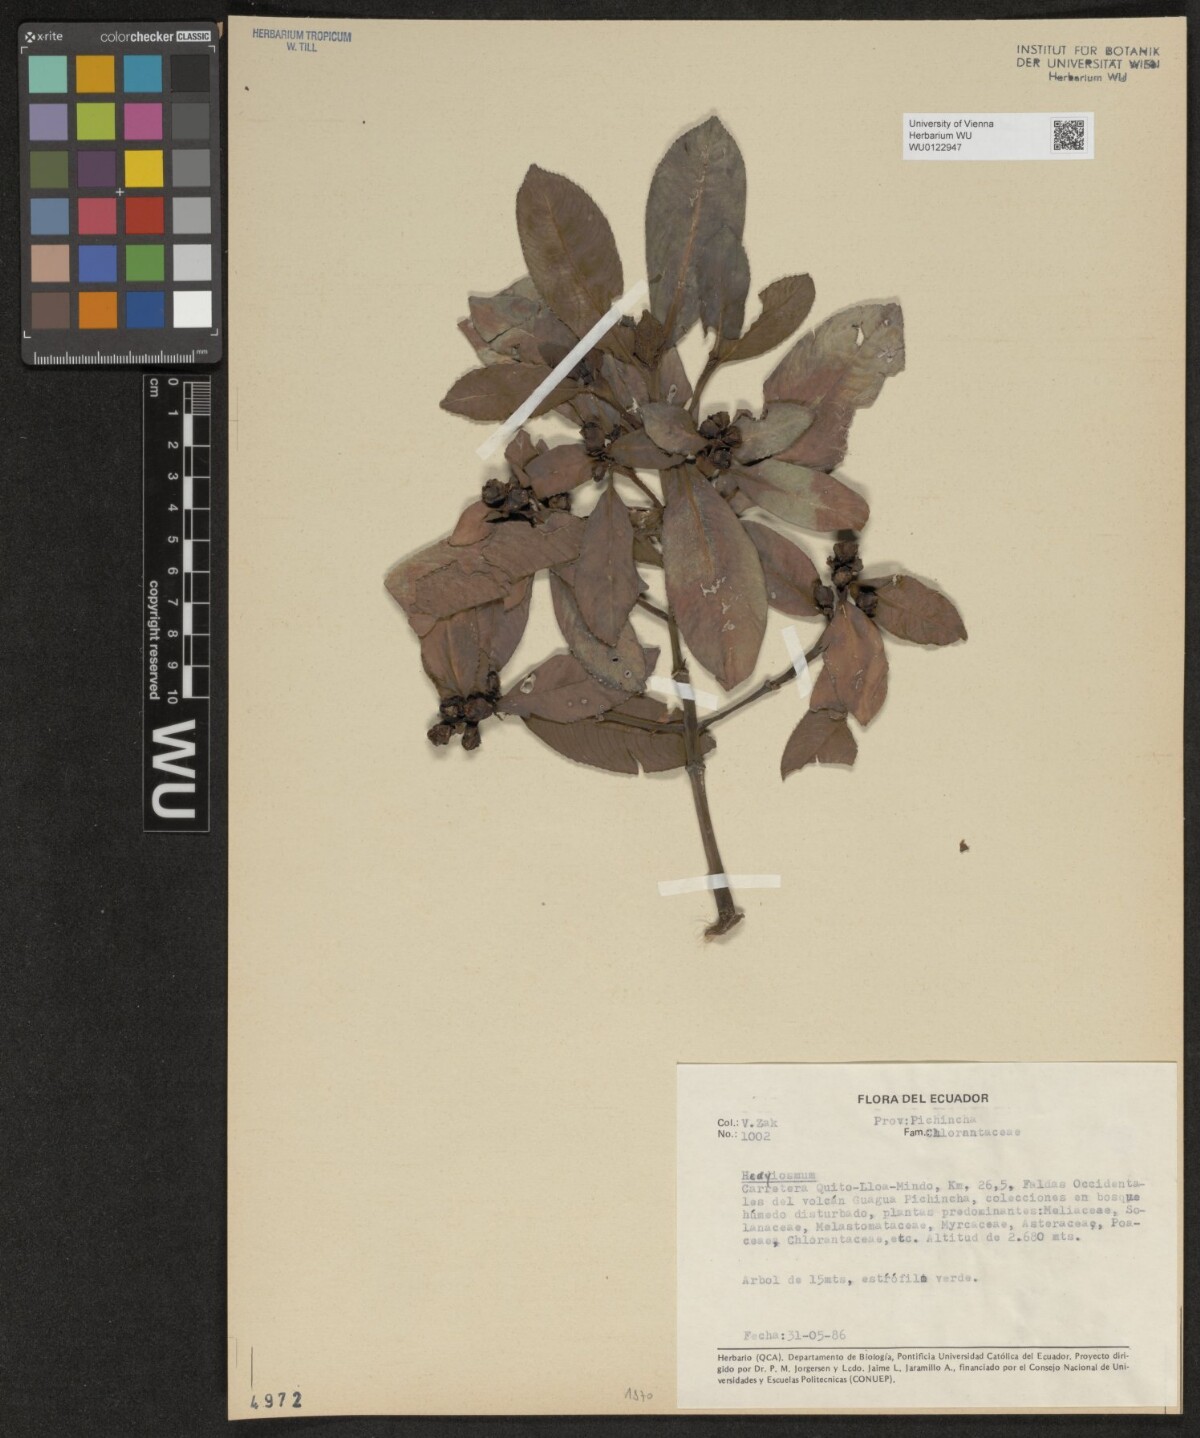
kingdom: Plantae
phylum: Tracheophyta
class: Magnoliopsida
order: Chloranthales
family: Chloranthaceae
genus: Hedyosmum
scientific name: Hedyosmum
